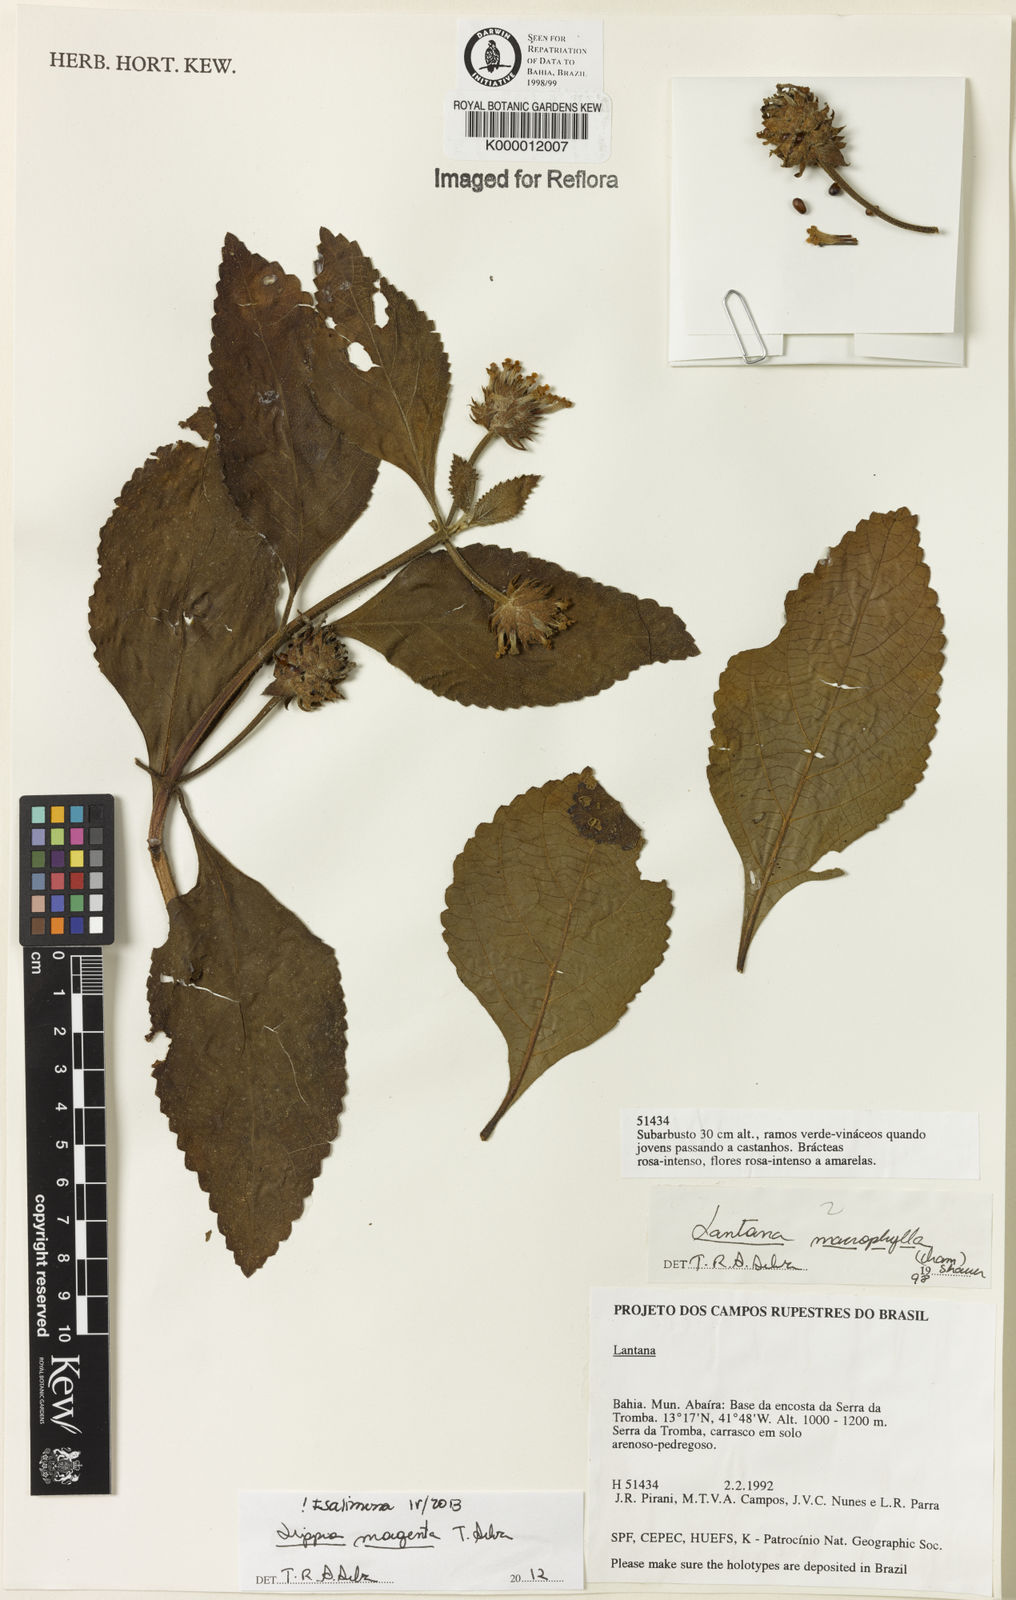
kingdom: Plantae
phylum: Tracheophyta
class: Magnoliopsida
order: Lamiales
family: Verbenaceae
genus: Lippia
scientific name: Lippia
